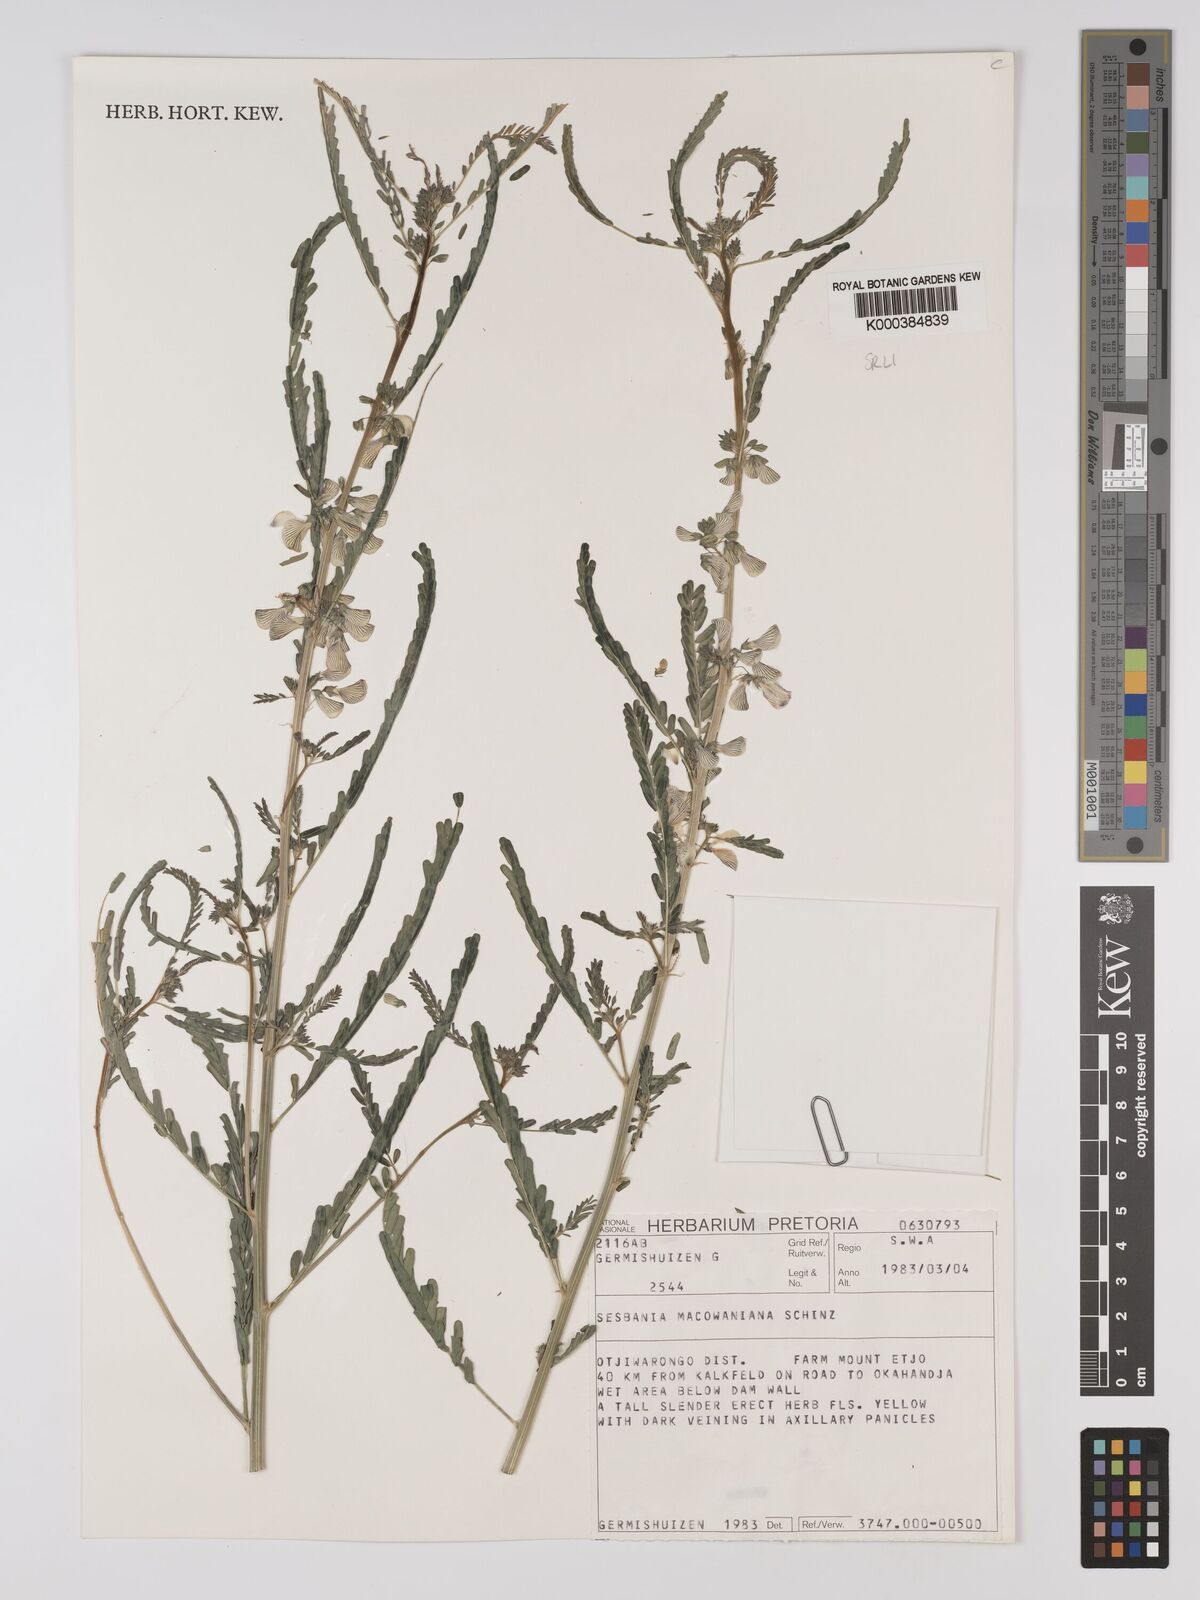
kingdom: Plantae
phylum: Tracheophyta
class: Magnoliopsida
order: Fabales
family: Fabaceae
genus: Sesbania
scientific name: Sesbania macowaniana
